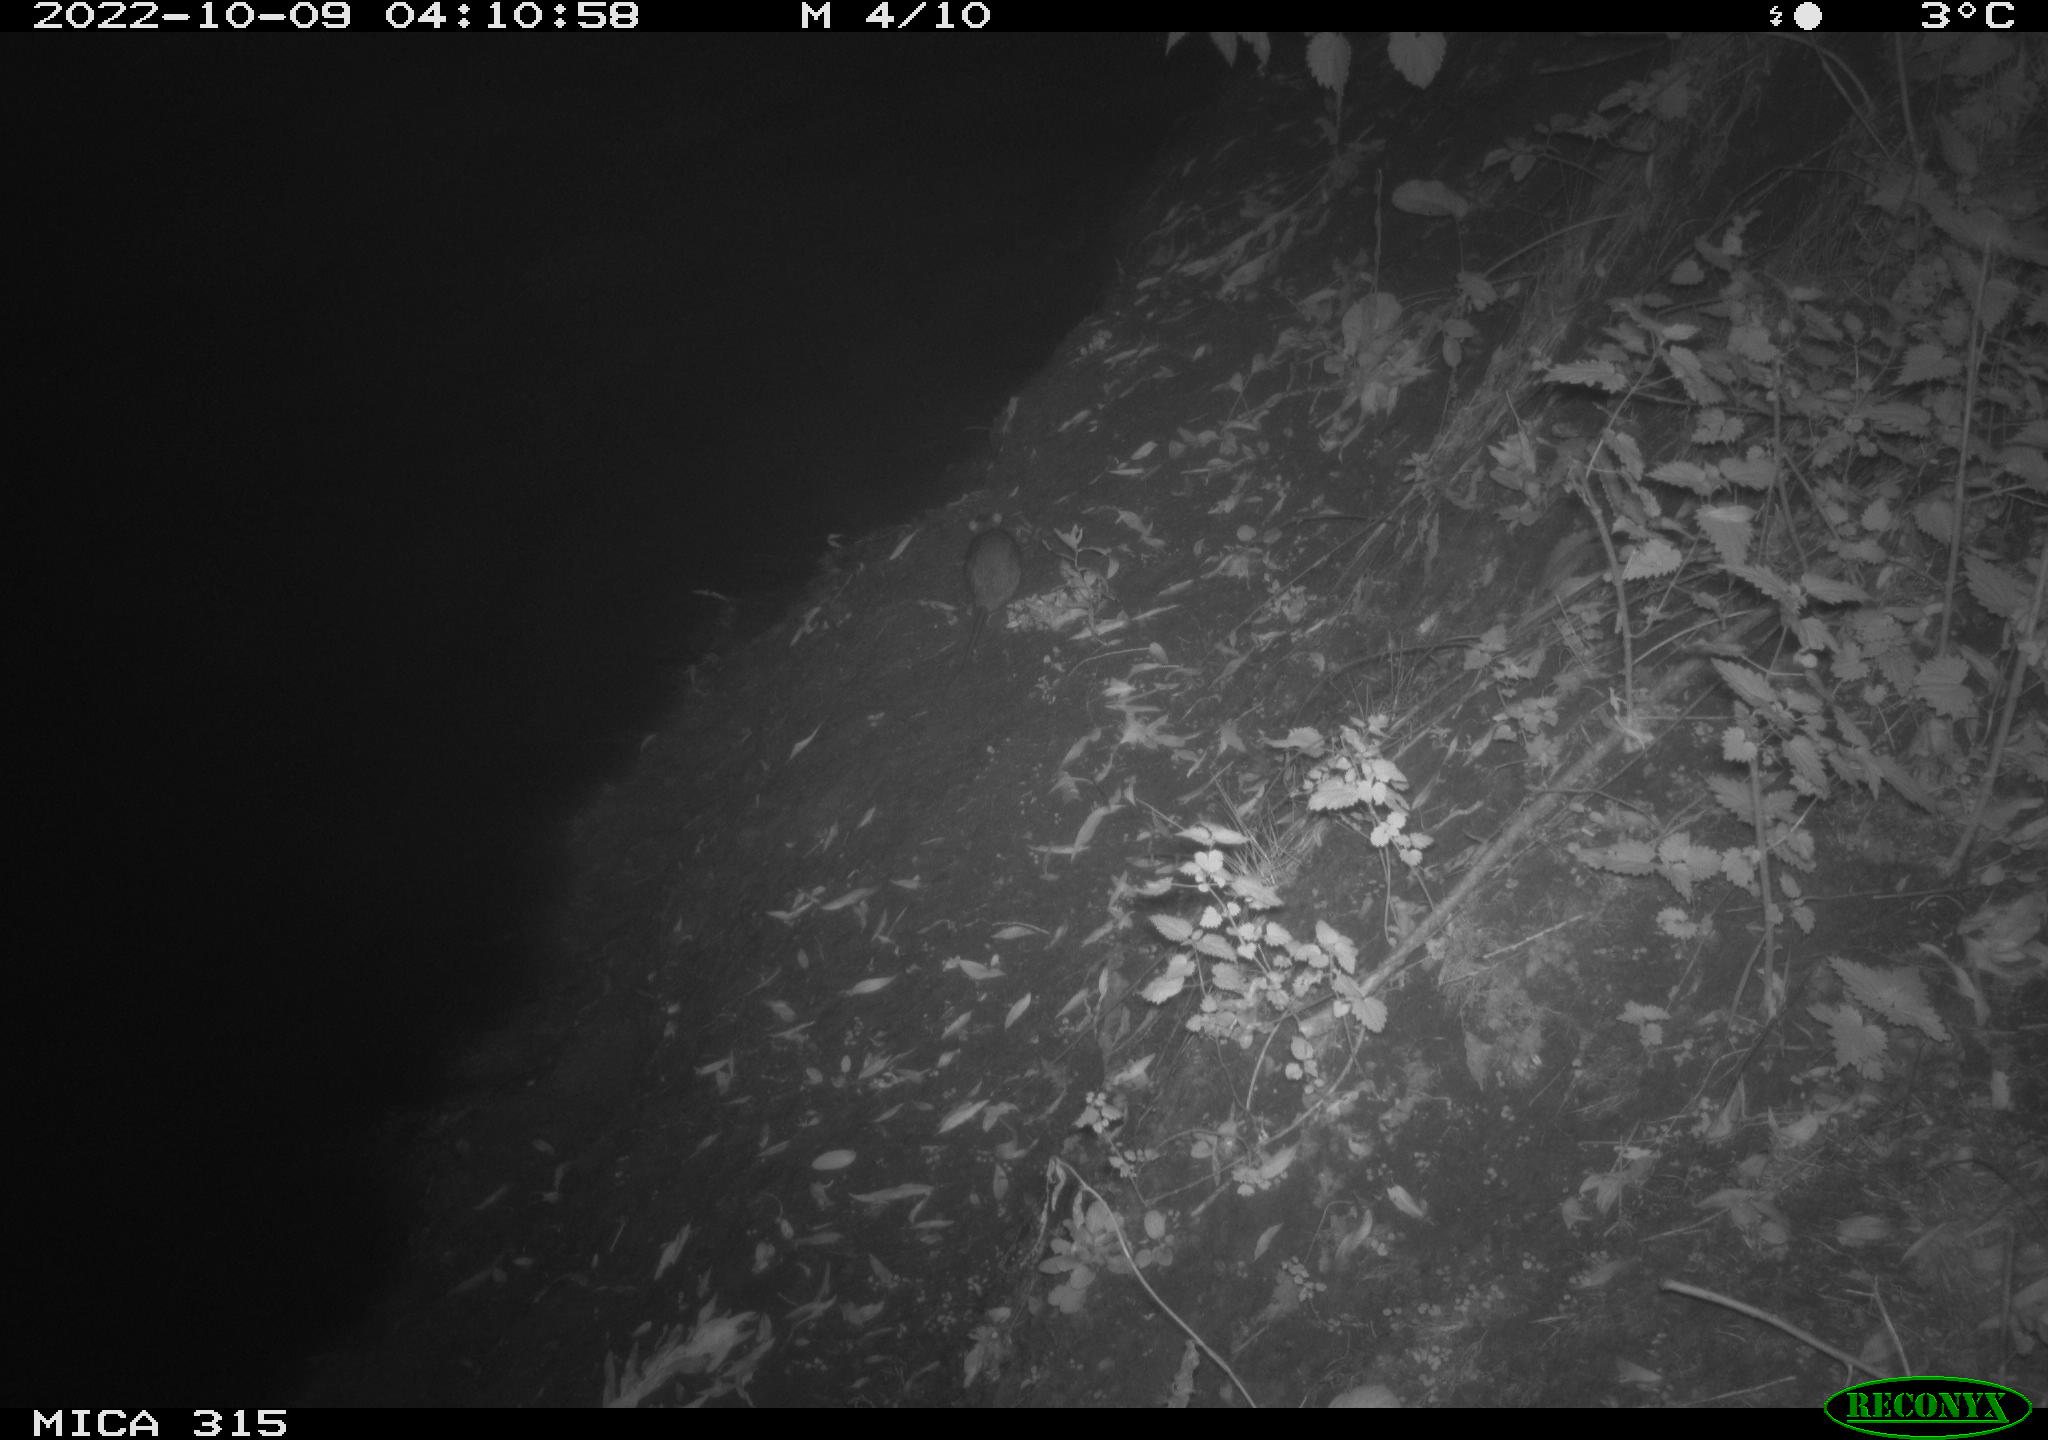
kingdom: Animalia
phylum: Chordata
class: Mammalia
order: Rodentia
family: Muridae
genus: Rattus
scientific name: Rattus norvegicus
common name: Brown rat
